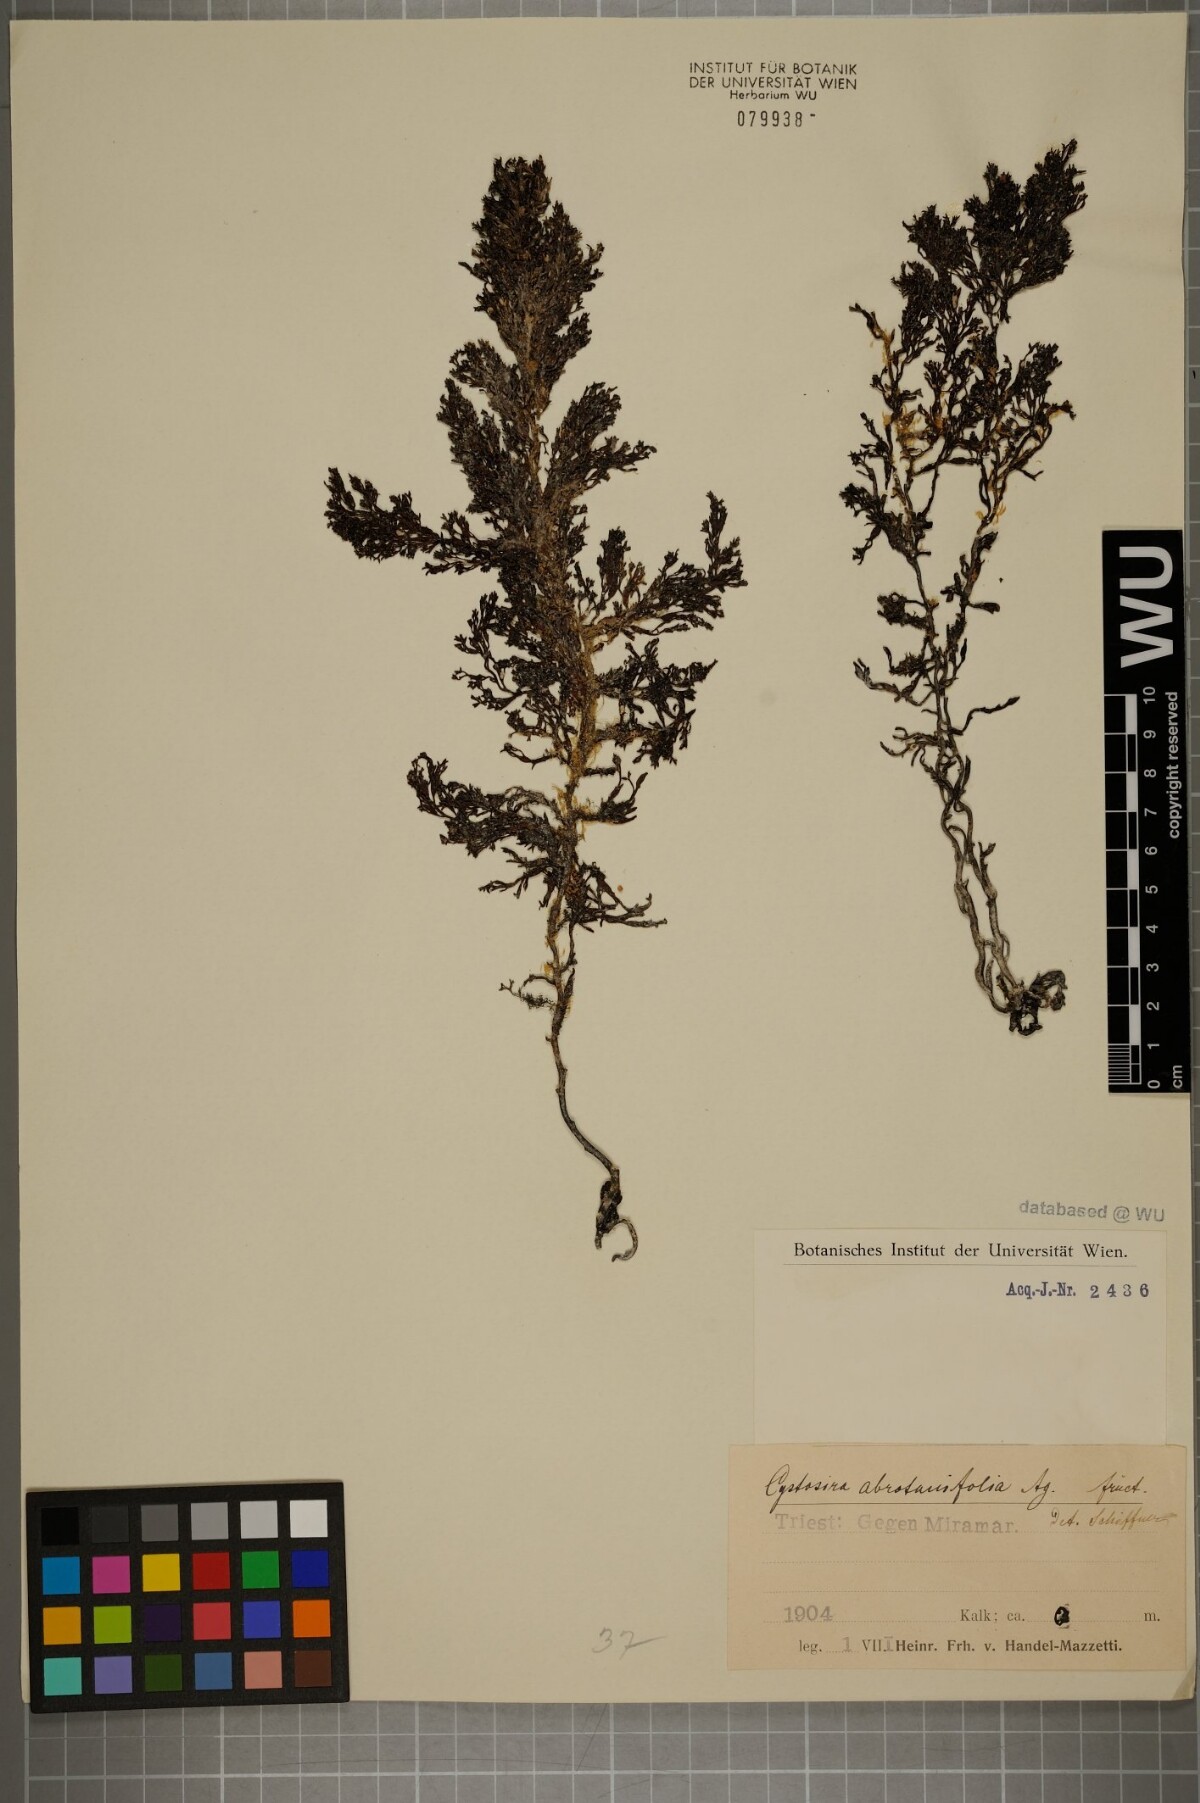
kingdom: Chromista
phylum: Ochrophyta
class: Phaeophyceae
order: Fucales
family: Sargassaceae
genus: Cystoseira
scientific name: Cystoseira foeniculacea
